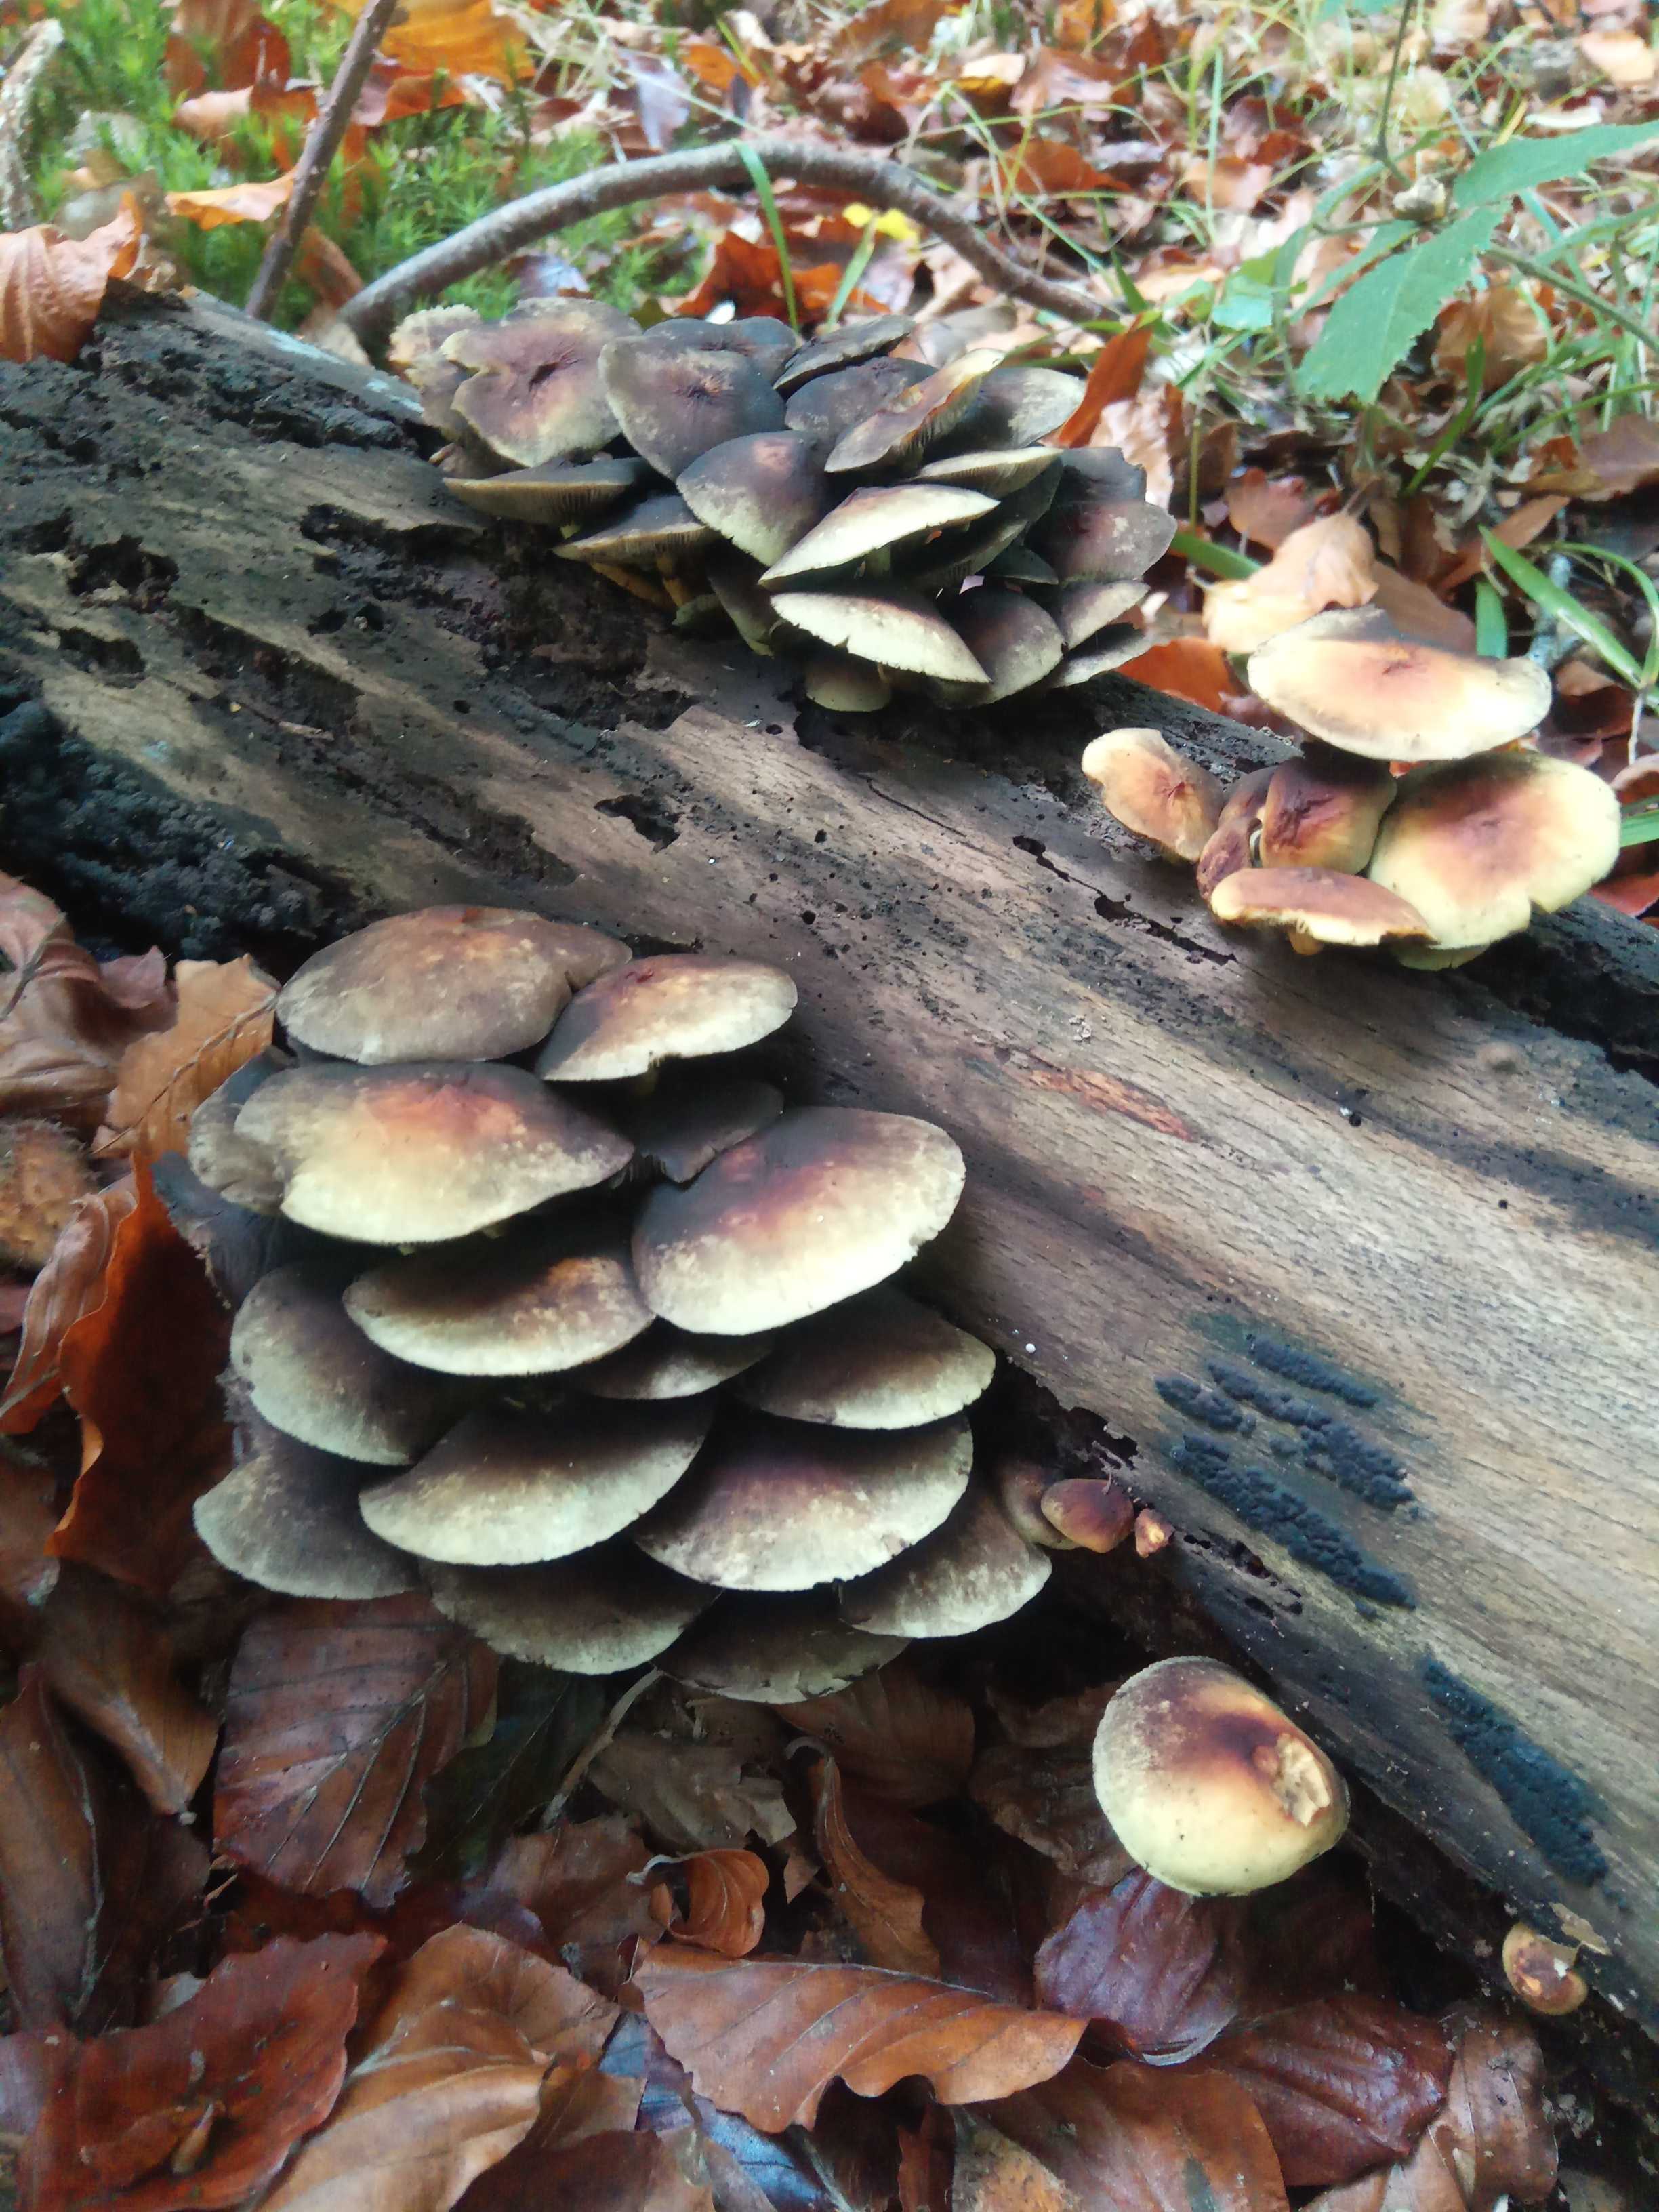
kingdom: Fungi
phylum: Basidiomycota
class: Agaricomycetes
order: Agaricales
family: Strophariaceae
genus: Hypholoma
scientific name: Hypholoma fasciculare
